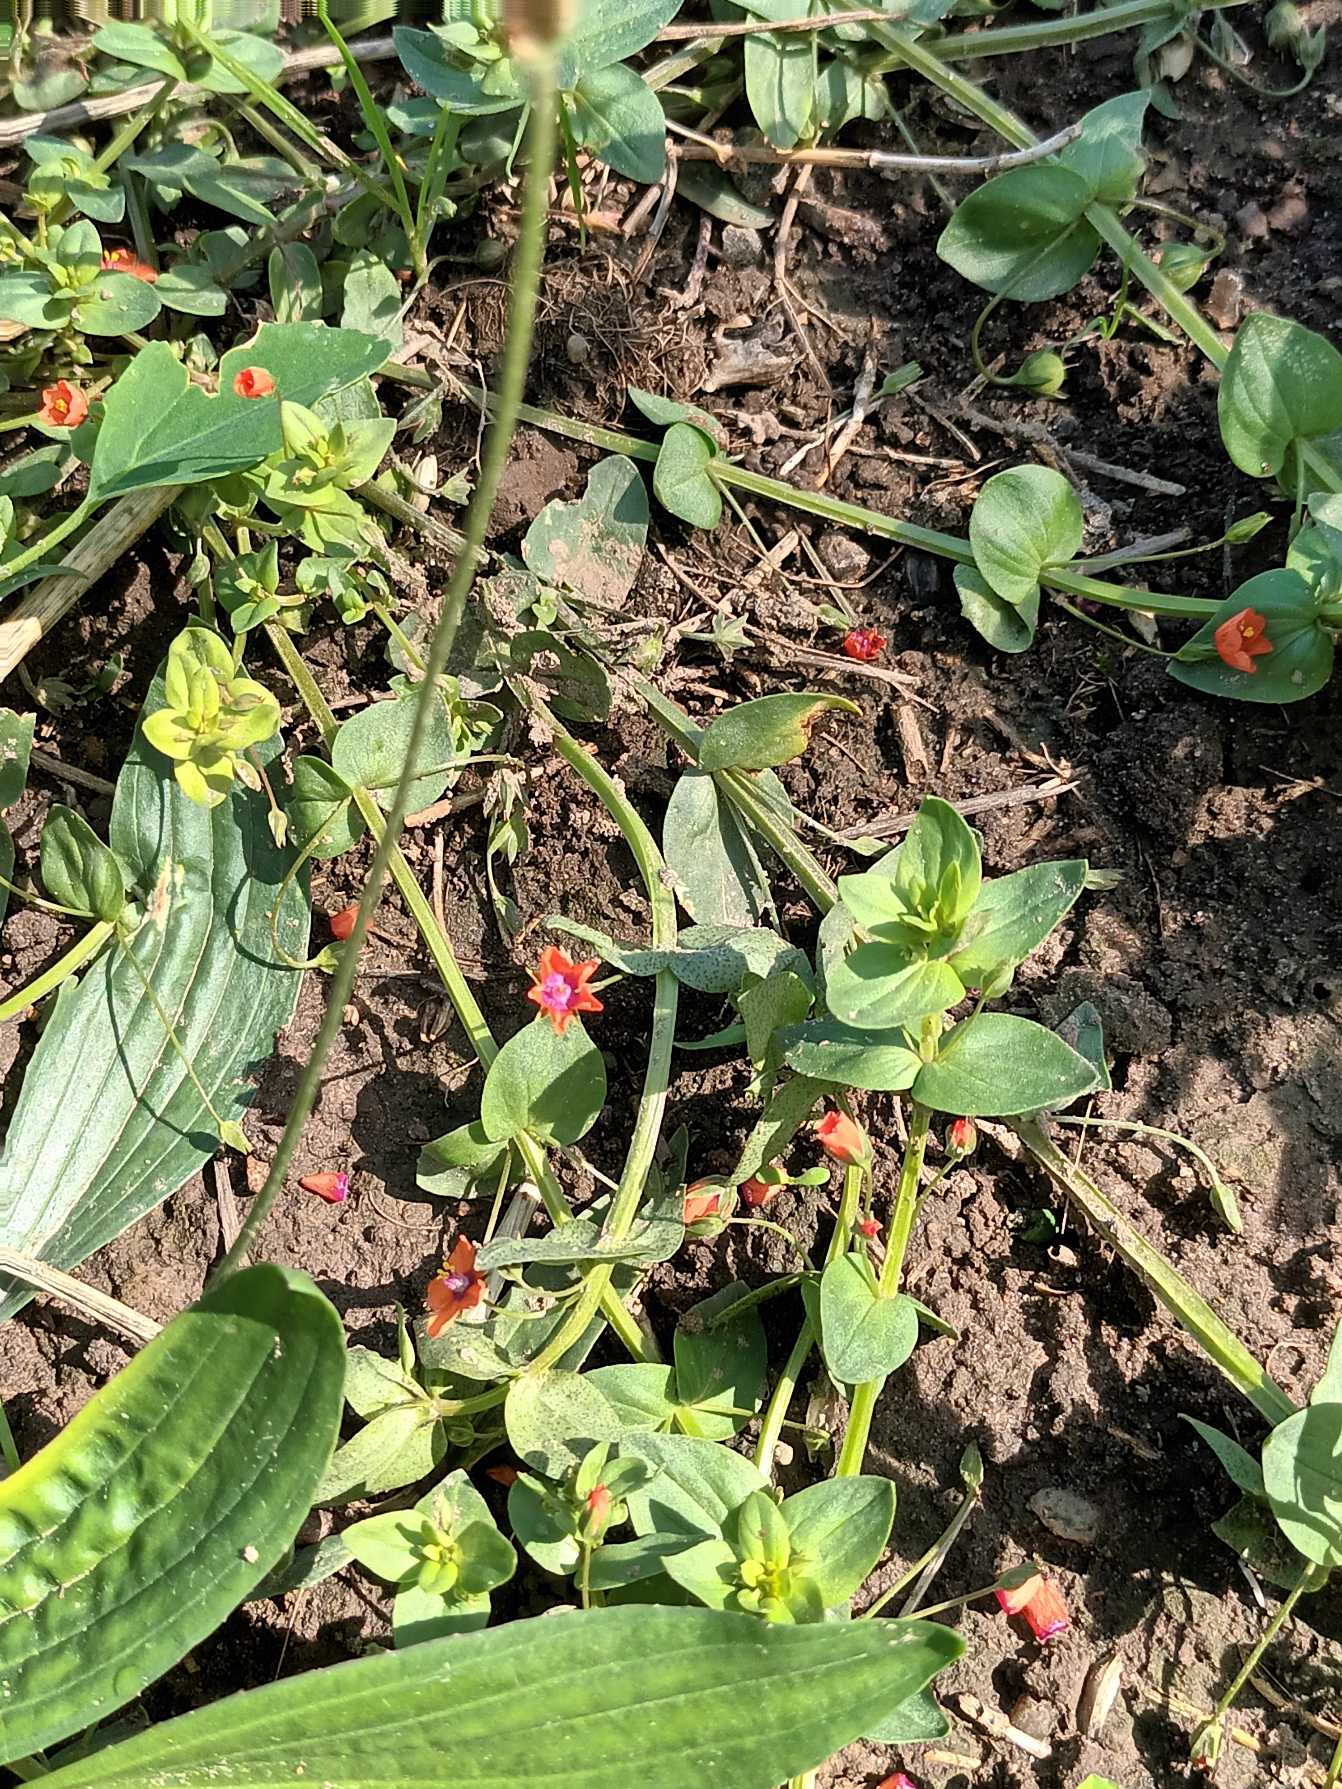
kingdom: Plantae
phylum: Tracheophyta
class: Magnoliopsida
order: Ericales
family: Primulaceae
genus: Lysimachia
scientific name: Lysimachia arvensis
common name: Rød arve
